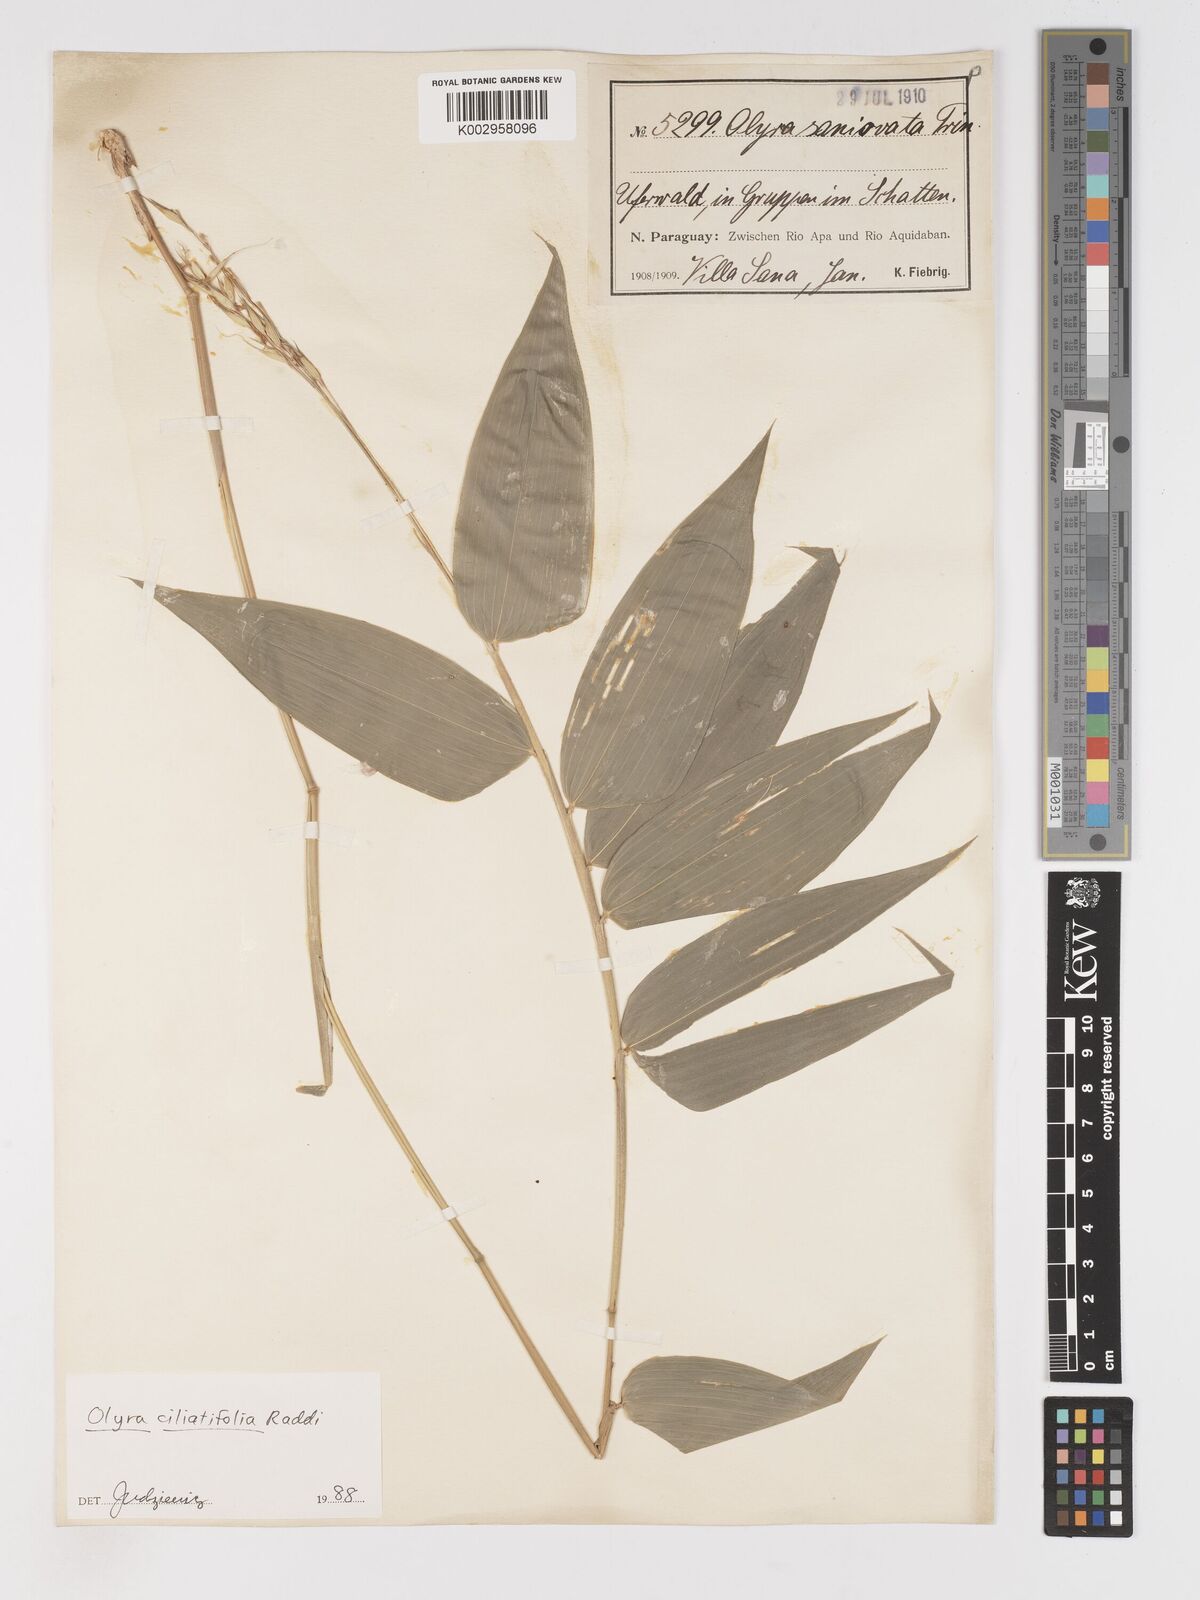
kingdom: Plantae
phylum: Tracheophyta
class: Liliopsida
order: Poales
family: Poaceae
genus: Olyra
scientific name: Olyra ciliatifolia
